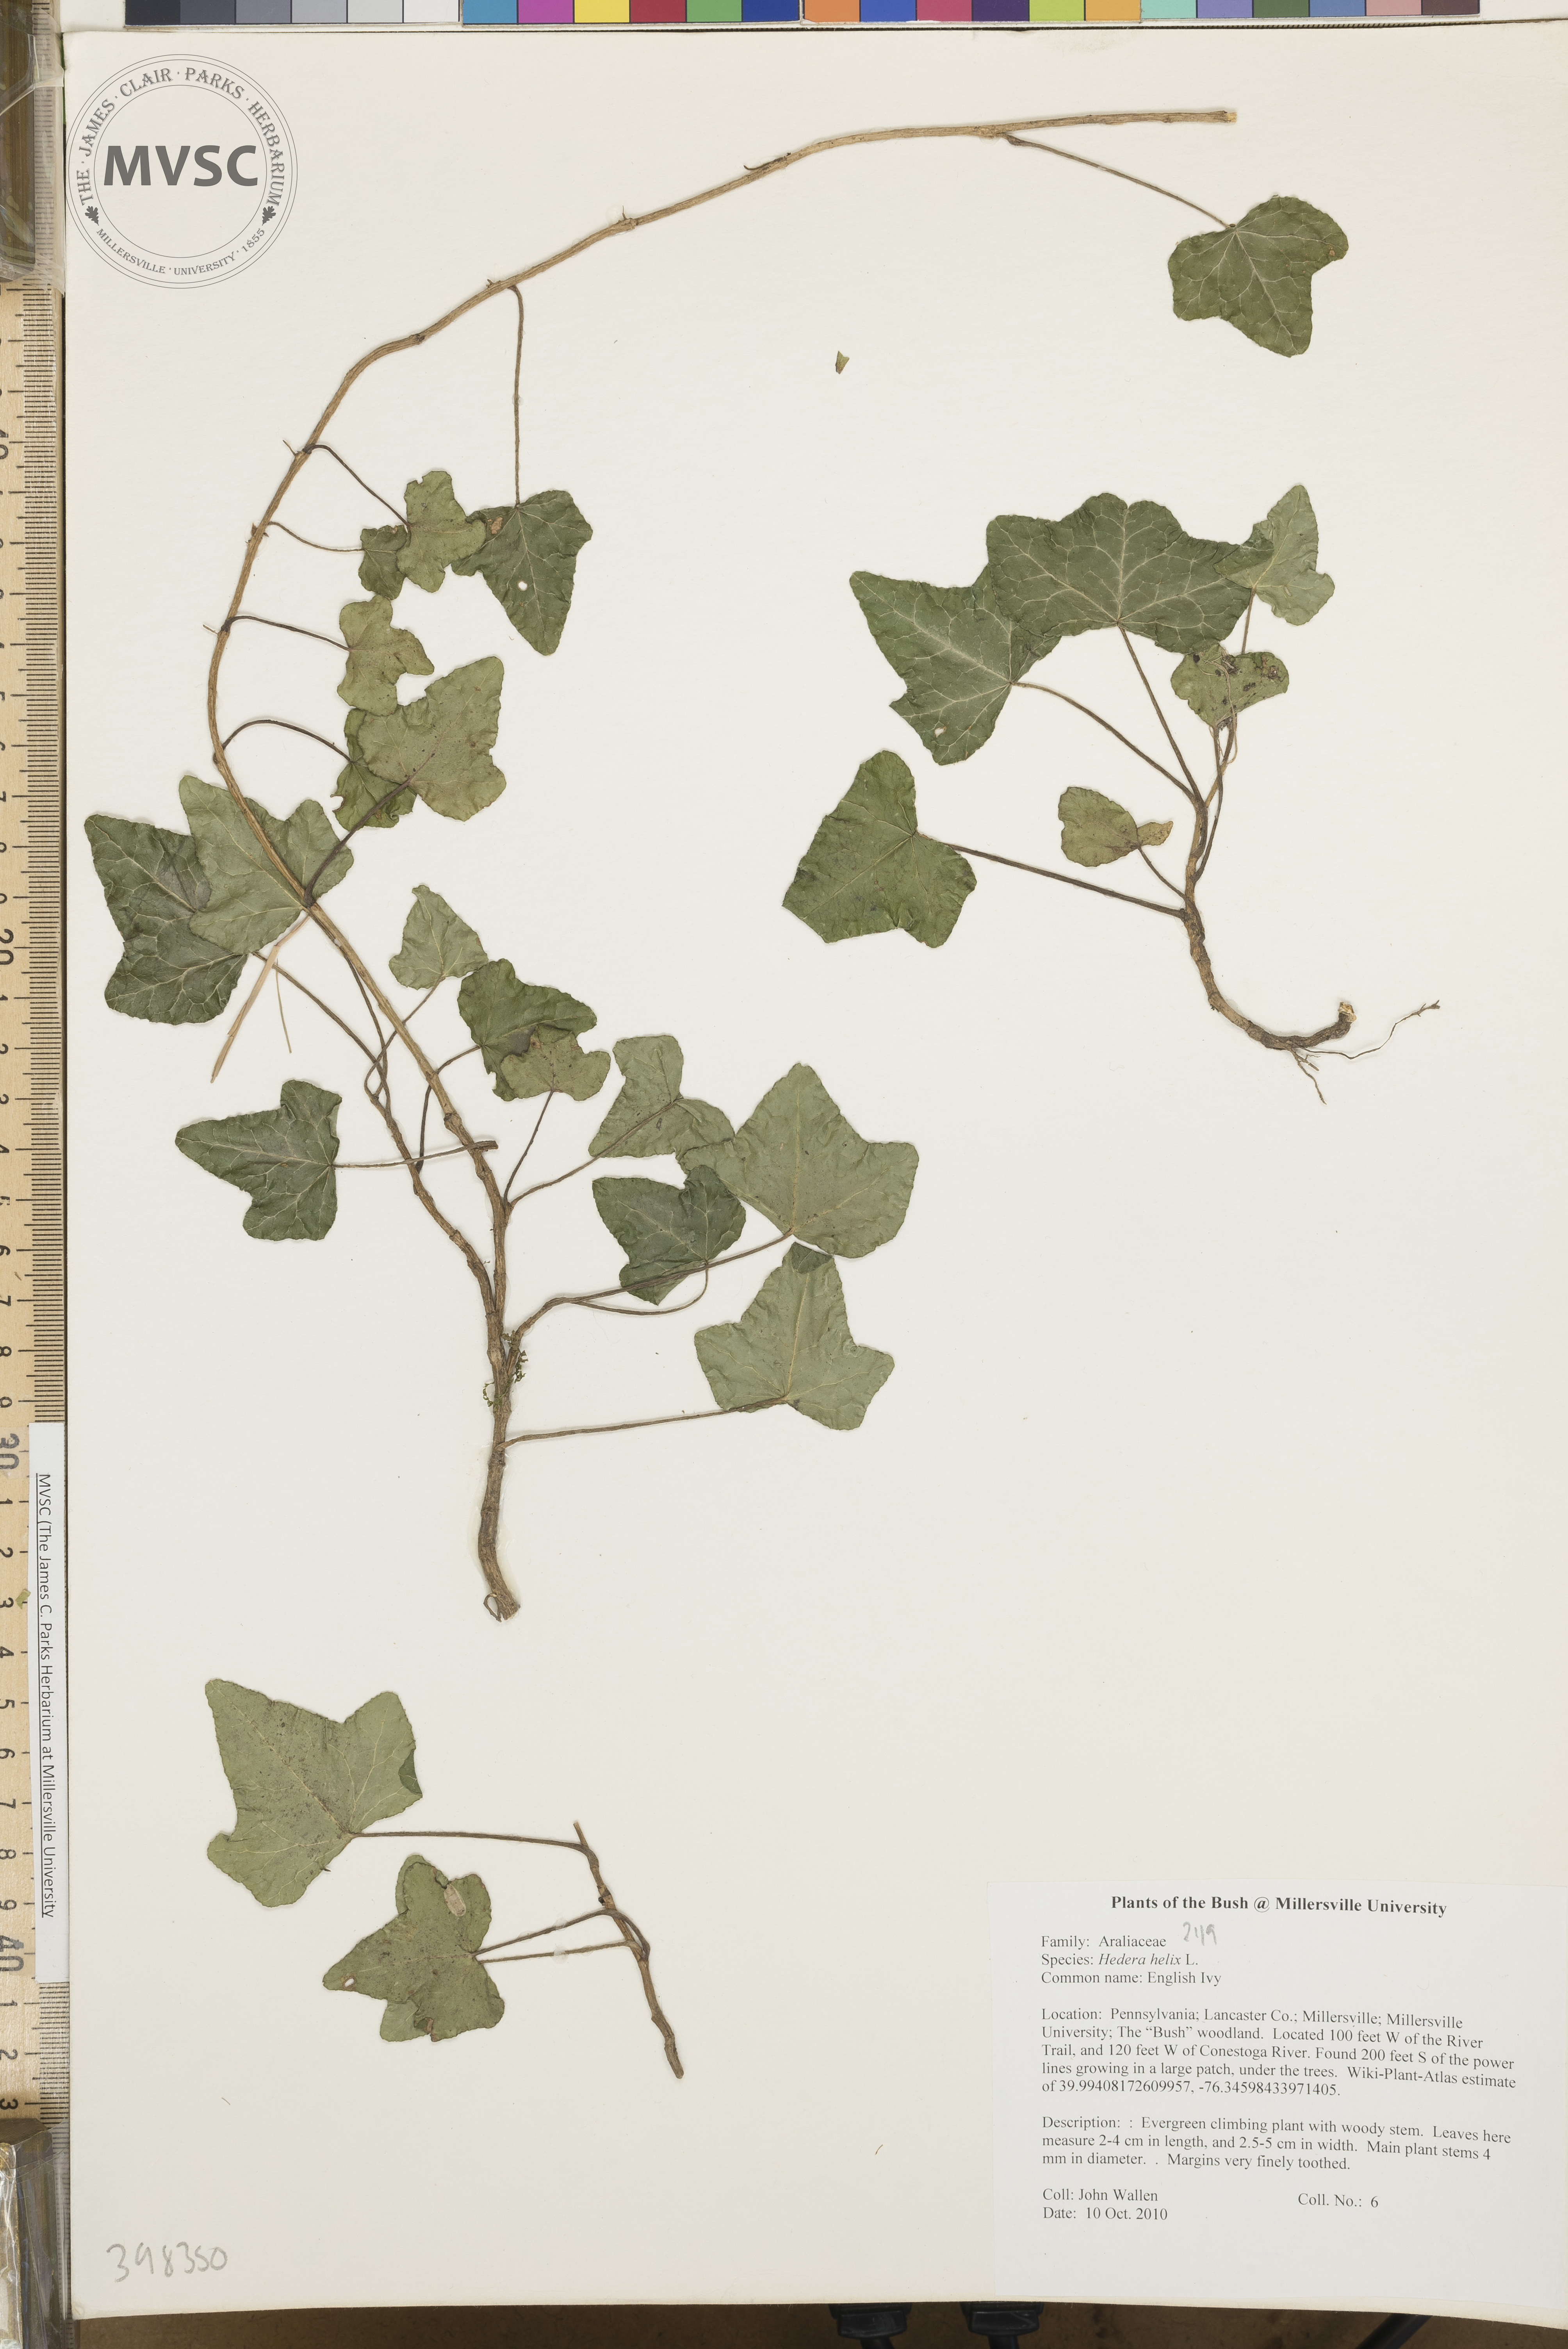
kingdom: Plantae
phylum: Tracheophyta
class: Magnoliopsida
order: Apiales
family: Araliaceae
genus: Hedera
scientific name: Hedera helix
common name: English ivy
